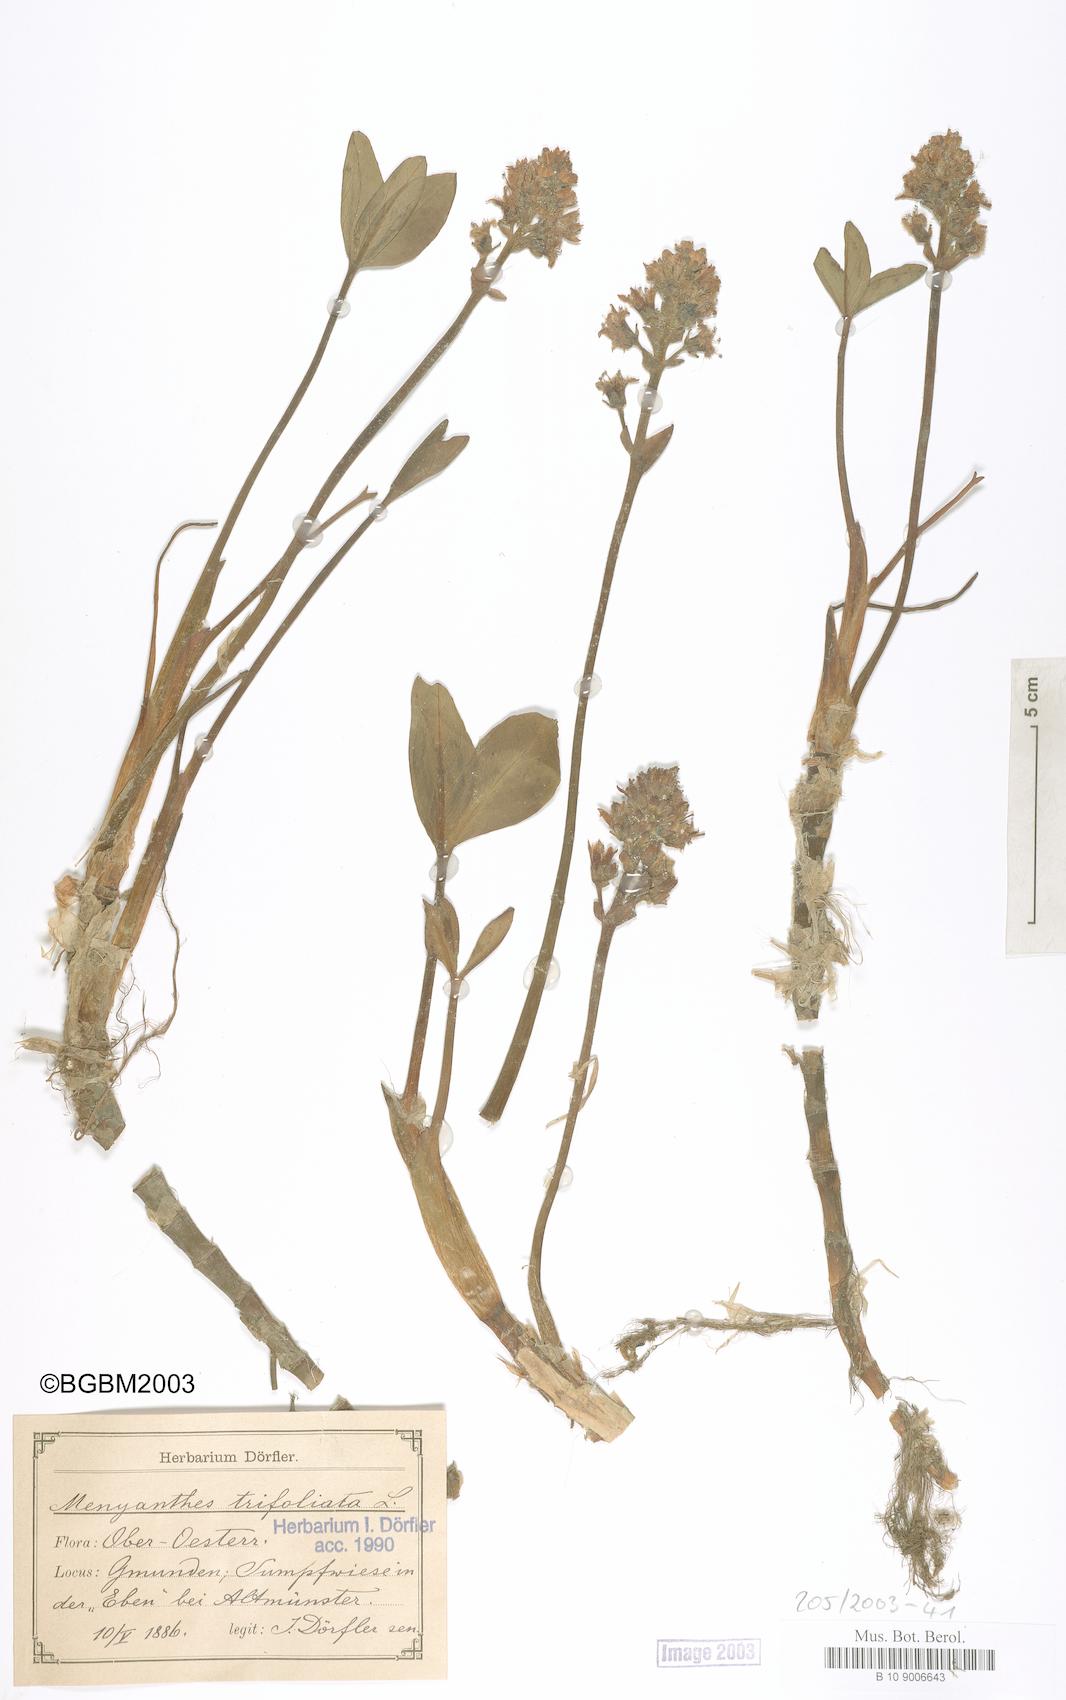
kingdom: Plantae
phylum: Tracheophyta
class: Magnoliopsida
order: Asterales
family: Menyanthaceae
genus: Menyanthes
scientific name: Menyanthes trifoliata
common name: Bogbean
